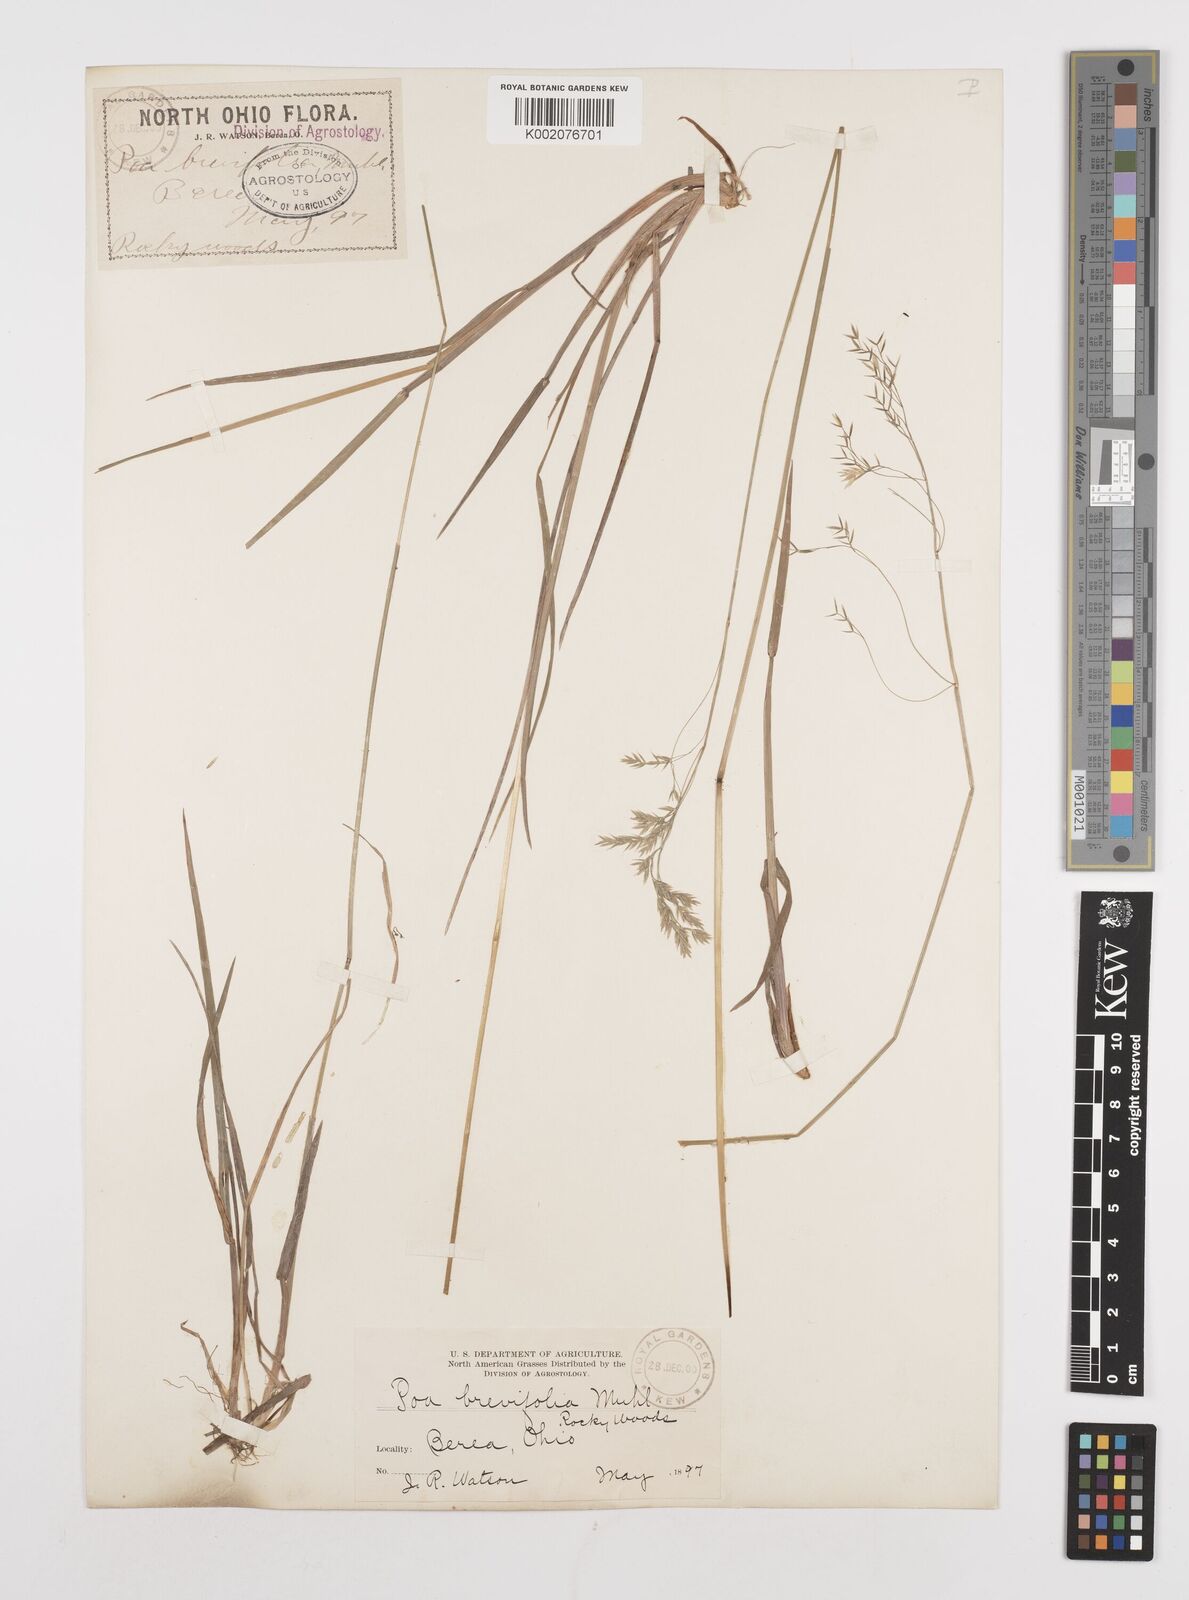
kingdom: Plantae
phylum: Tracheophyta
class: Liliopsida
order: Poales
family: Poaceae
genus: Poa
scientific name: Poa
